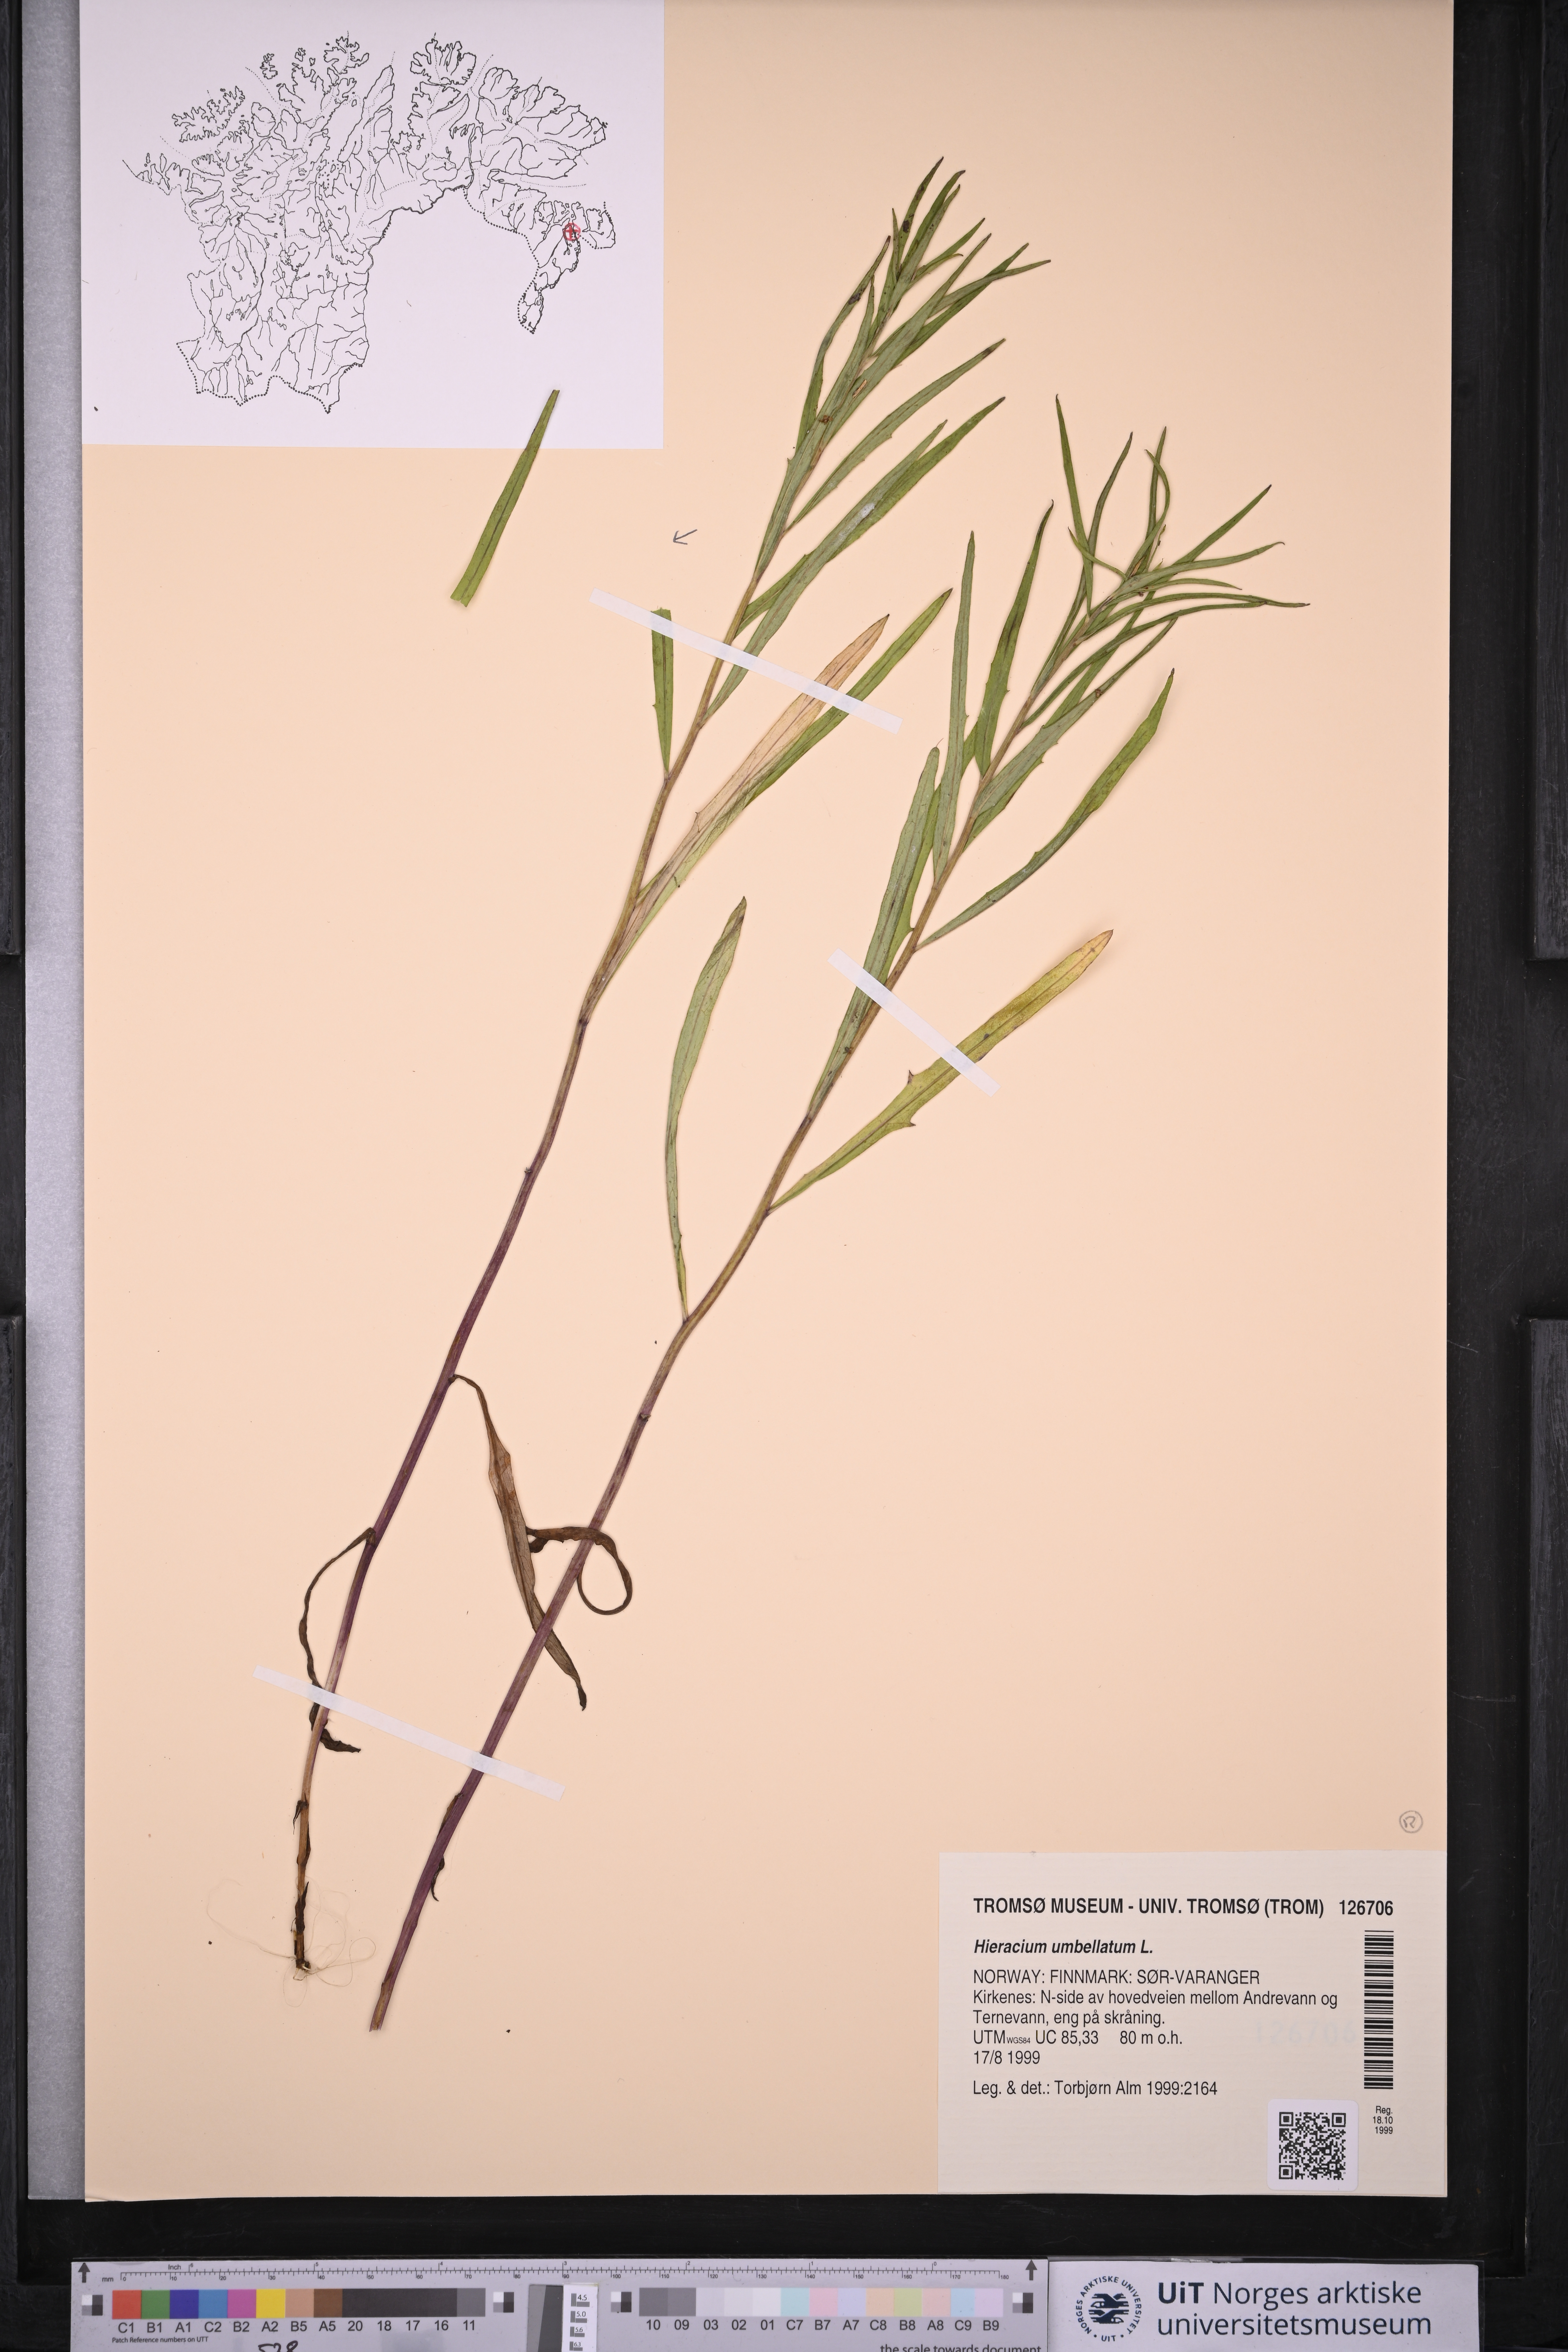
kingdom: Plantae
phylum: Tracheophyta
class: Magnoliopsida
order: Asterales
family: Asteraceae
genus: Hieracium
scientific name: Hieracium umbellatum
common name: Northern hawkweed
